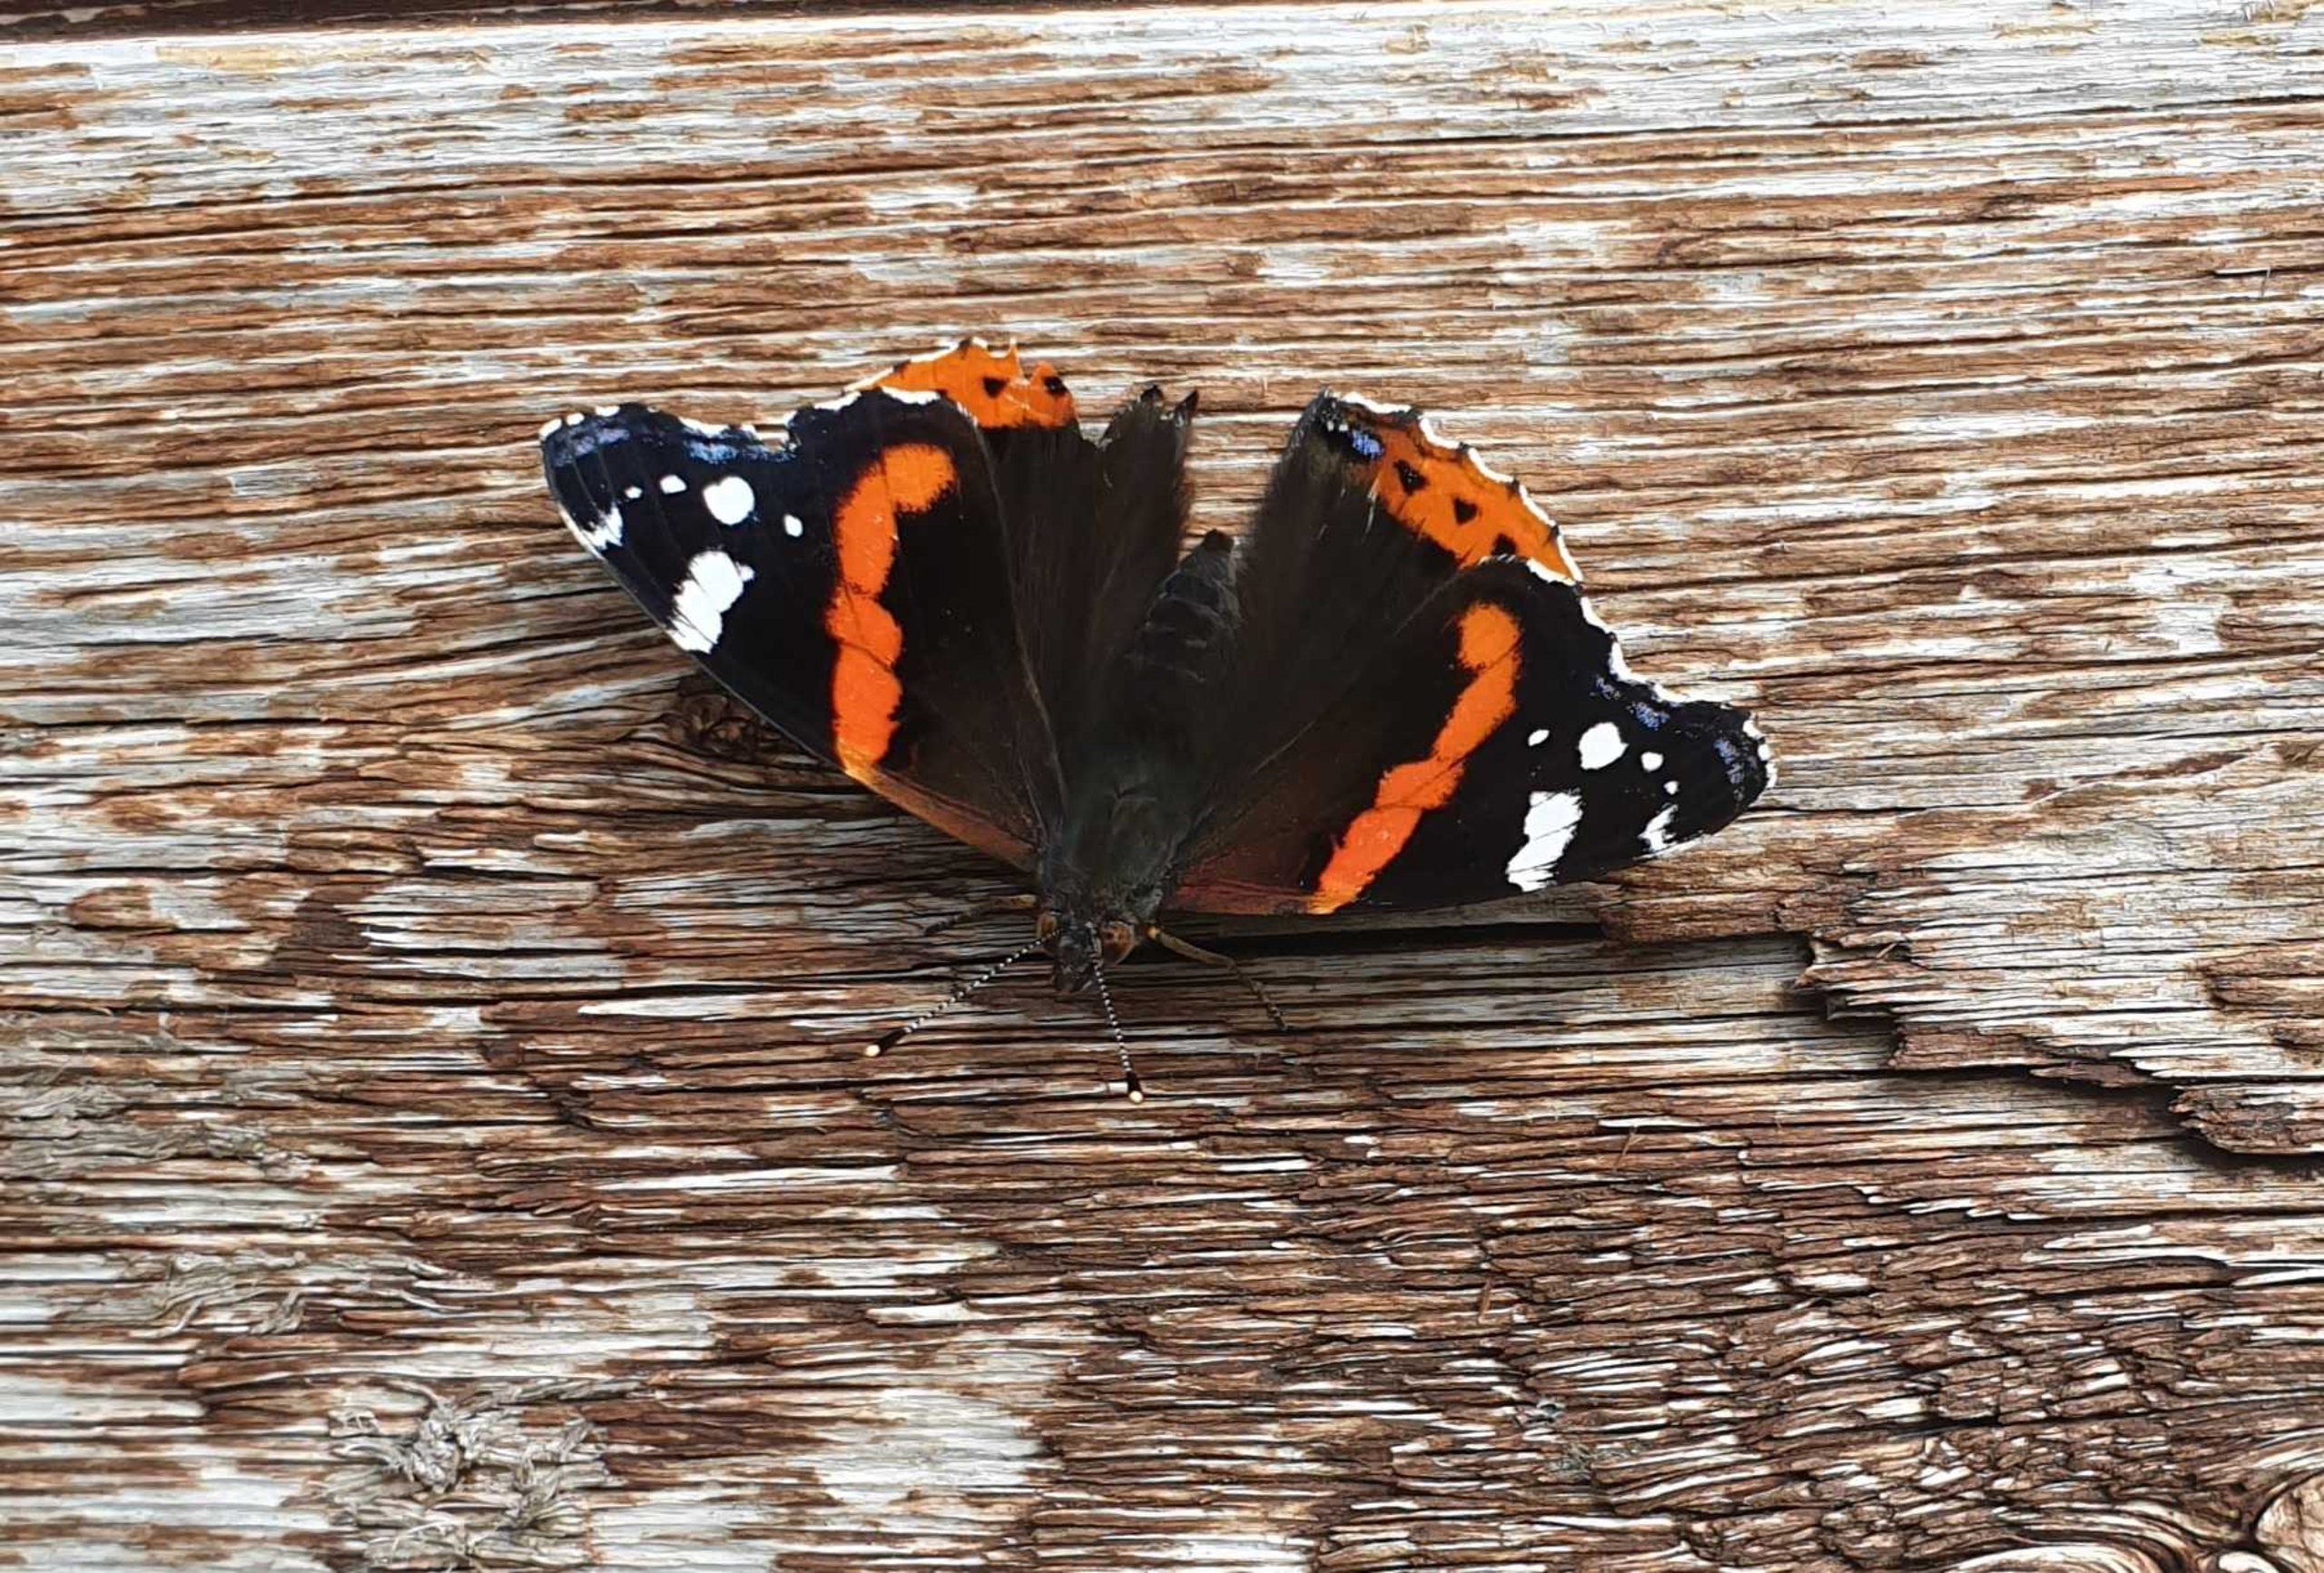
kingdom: Animalia
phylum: Arthropoda
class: Insecta
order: Lepidoptera
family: Nymphalidae
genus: Vanessa
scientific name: Vanessa atalanta
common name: Admiral
